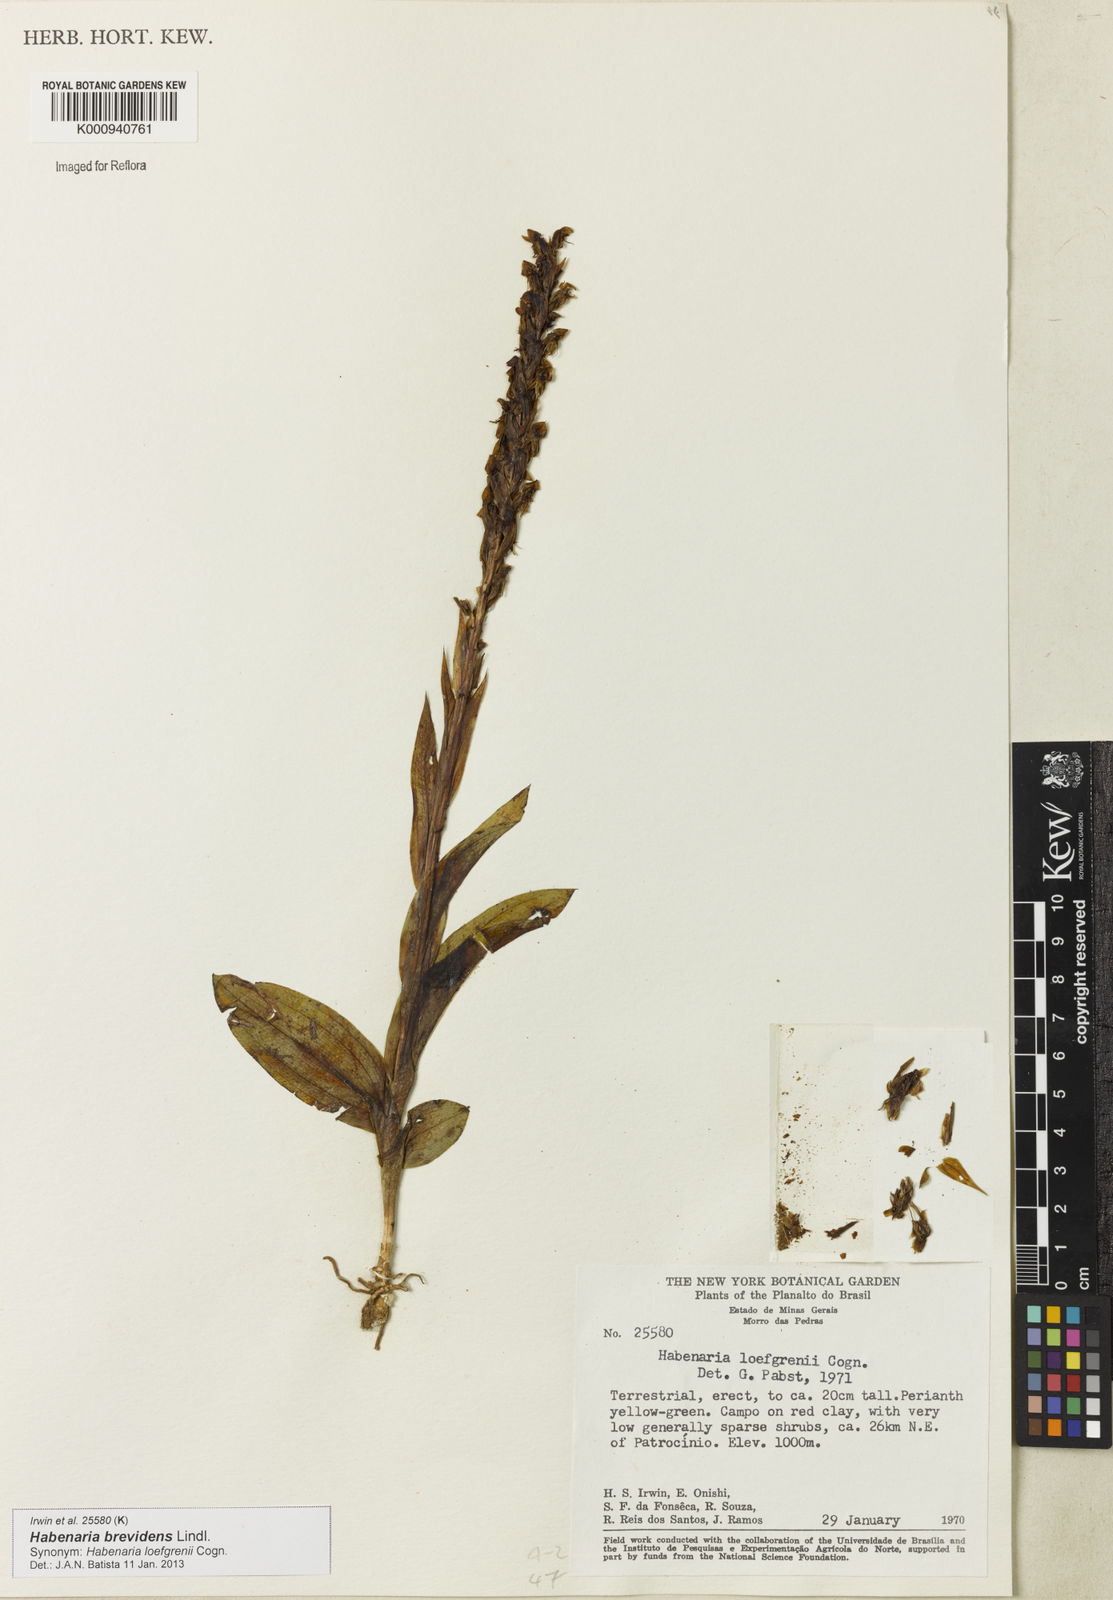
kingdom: Plantae
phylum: Tracheophyta
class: Liliopsida
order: Asparagales
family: Orchidaceae
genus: Habenaria
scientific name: Habenaria brevidens
